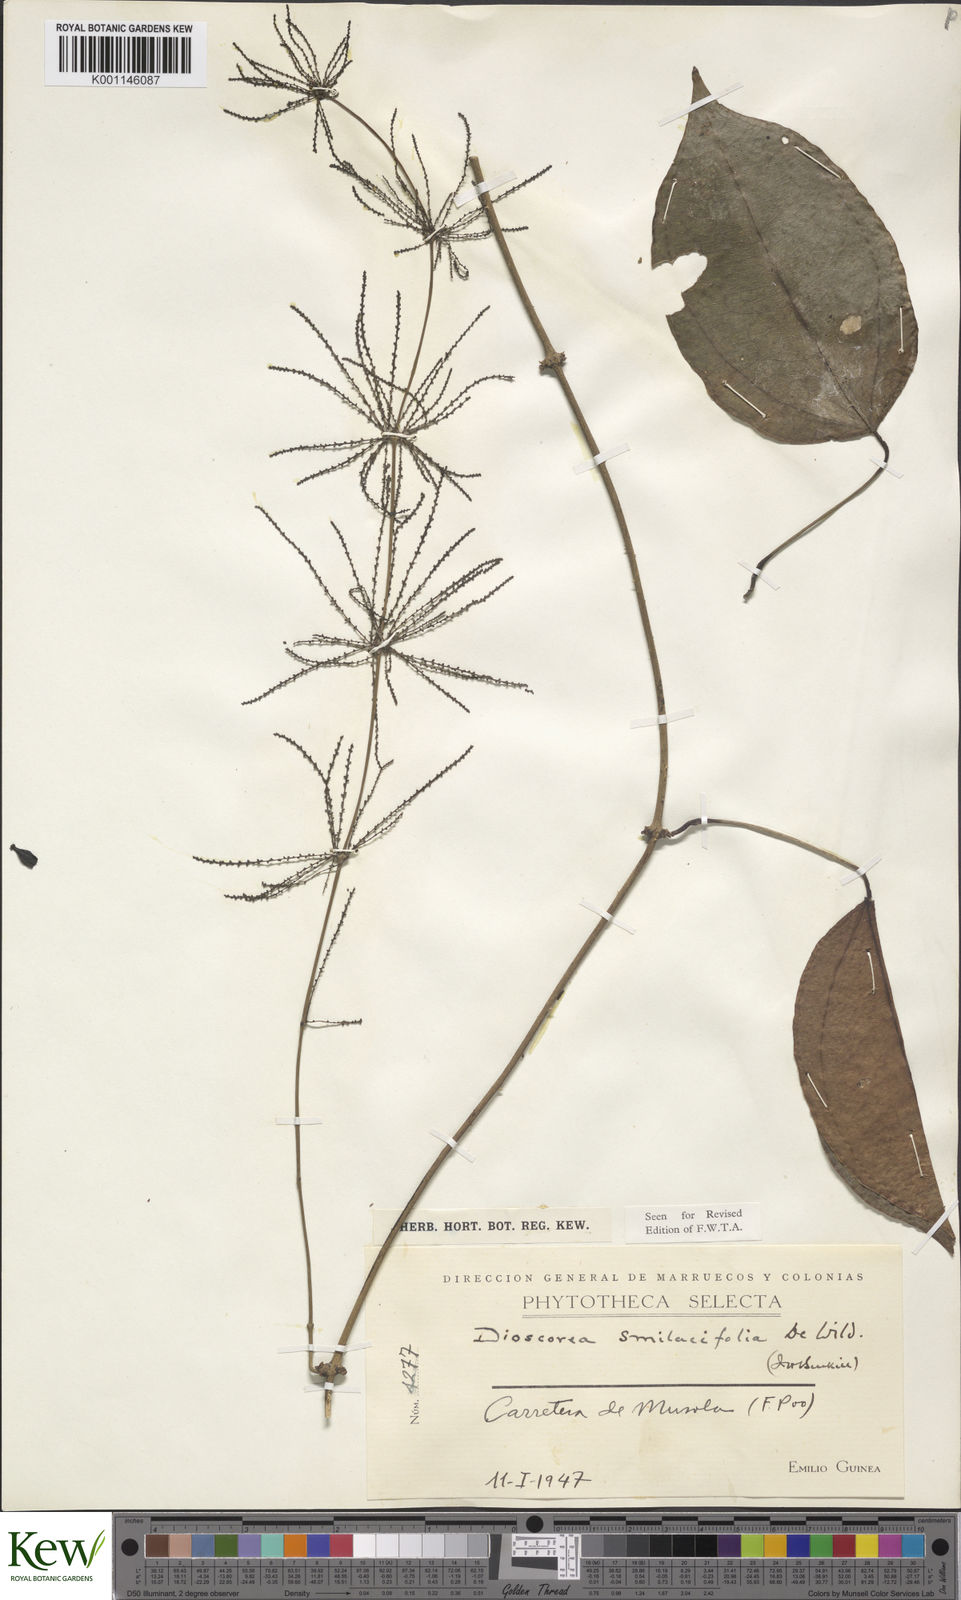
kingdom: Plantae
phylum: Tracheophyta
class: Liliopsida
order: Dioscoreales
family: Dioscoreaceae
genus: Dioscorea
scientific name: Dioscorea smilacifolia
